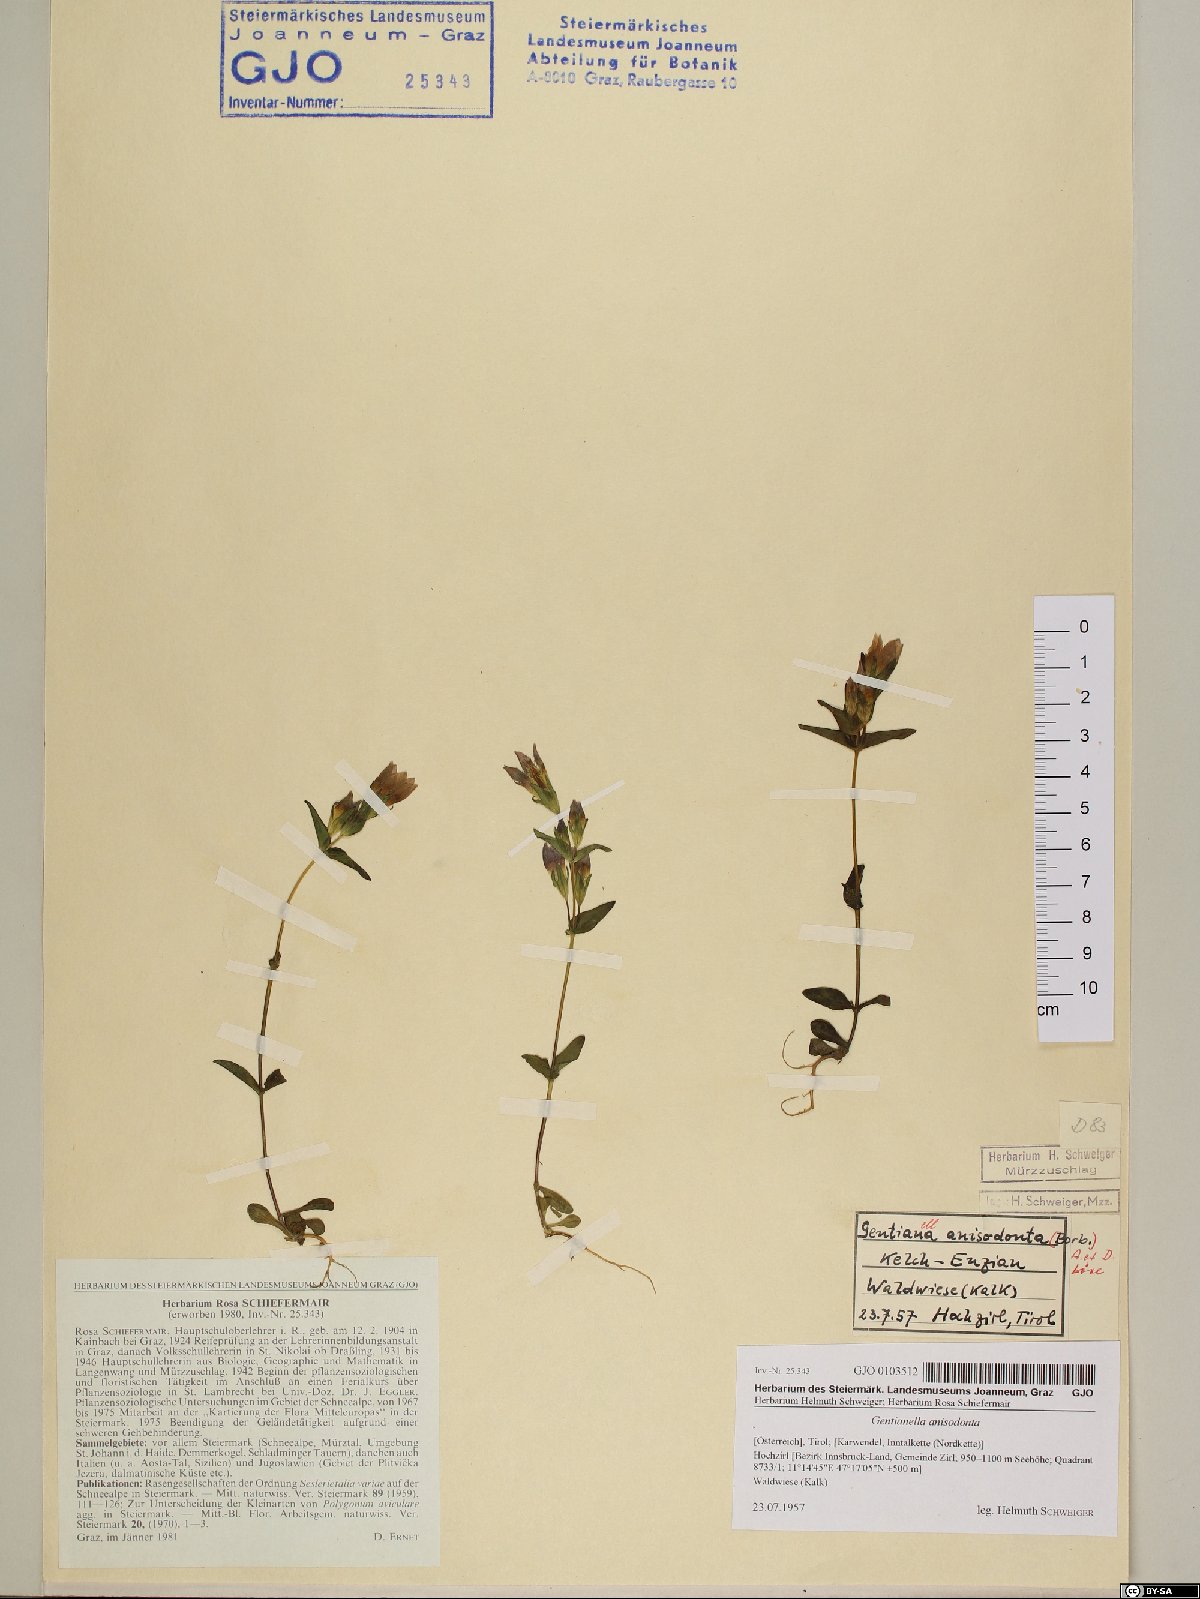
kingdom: Plantae
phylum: Tracheophyta
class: Magnoliopsida
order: Gentianales
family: Gentianaceae
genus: Gentianella
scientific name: Gentianella anisodonta
